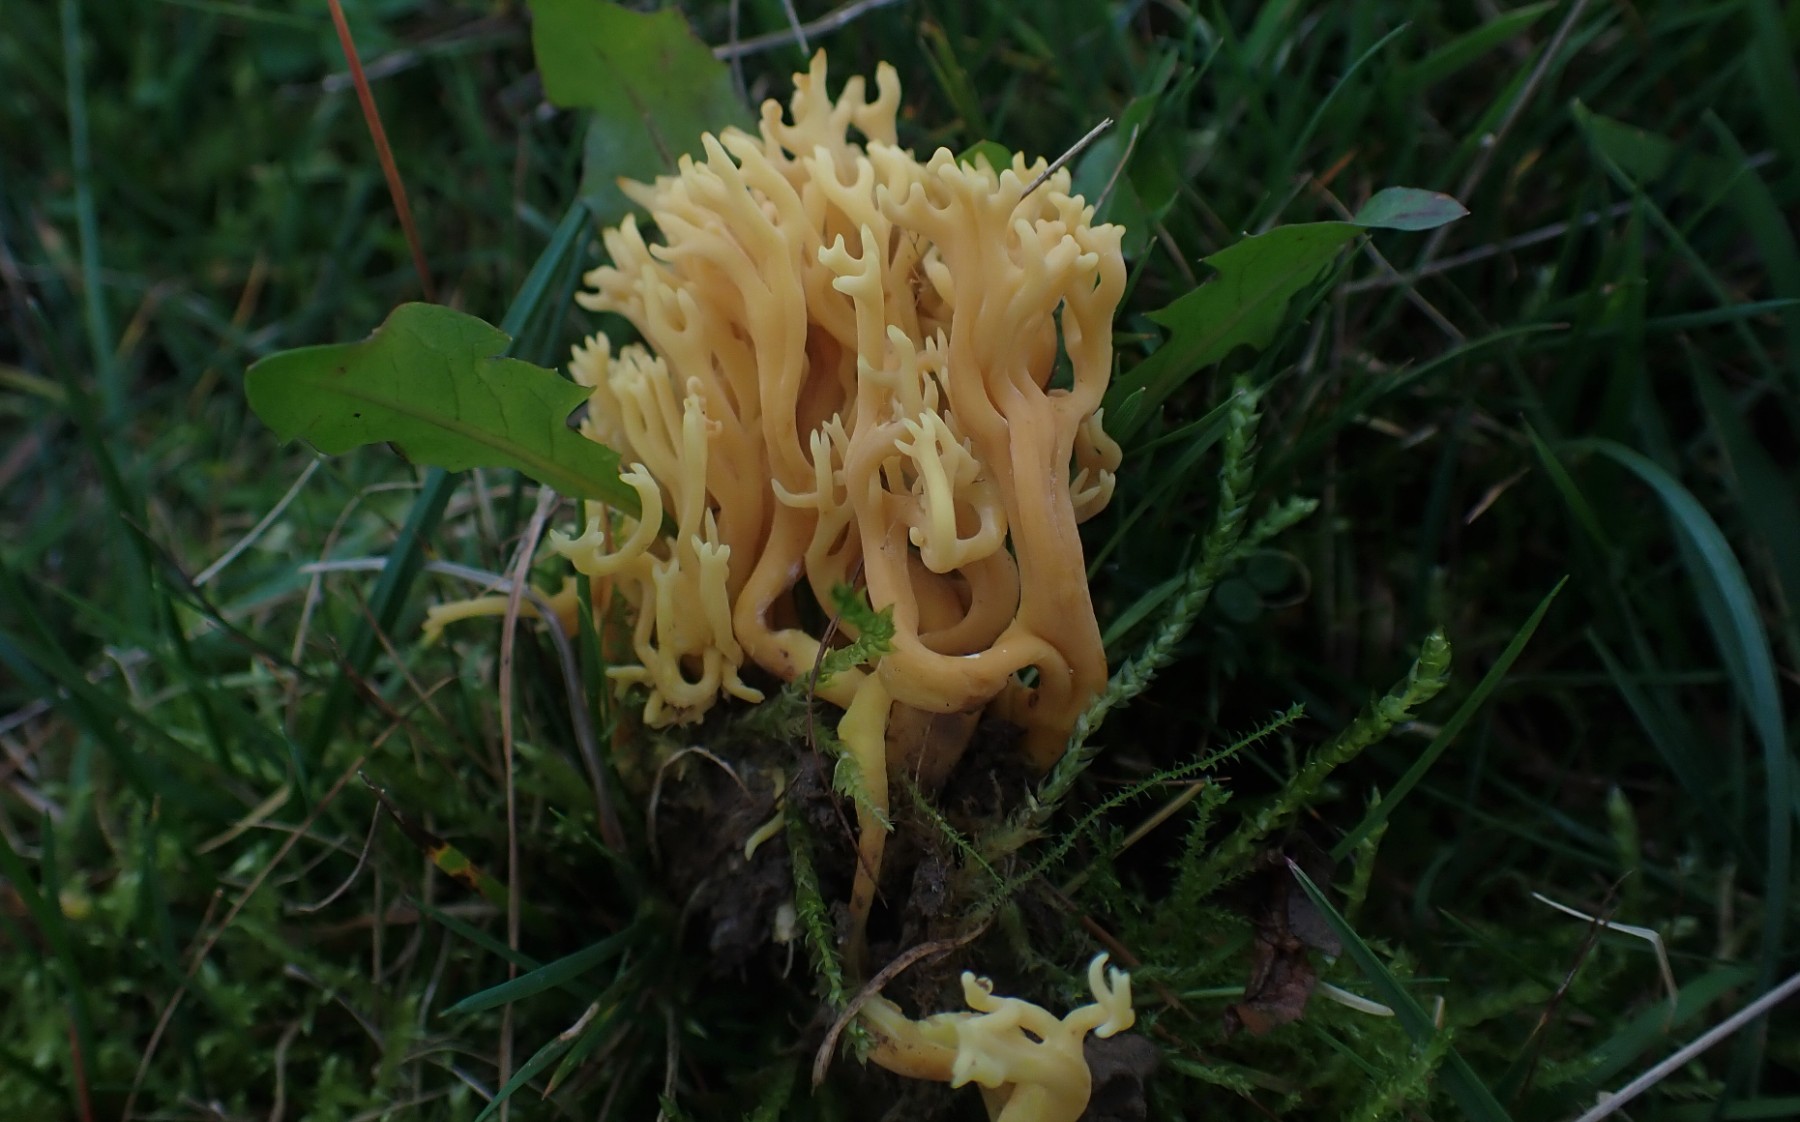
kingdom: Fungi
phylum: Basidiomycota
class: Agaricomycetes
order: Agaricales
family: Clavariaceae
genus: Clavulinopsis
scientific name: Clavulinopsis corniculata
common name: eng-køllesvamp
